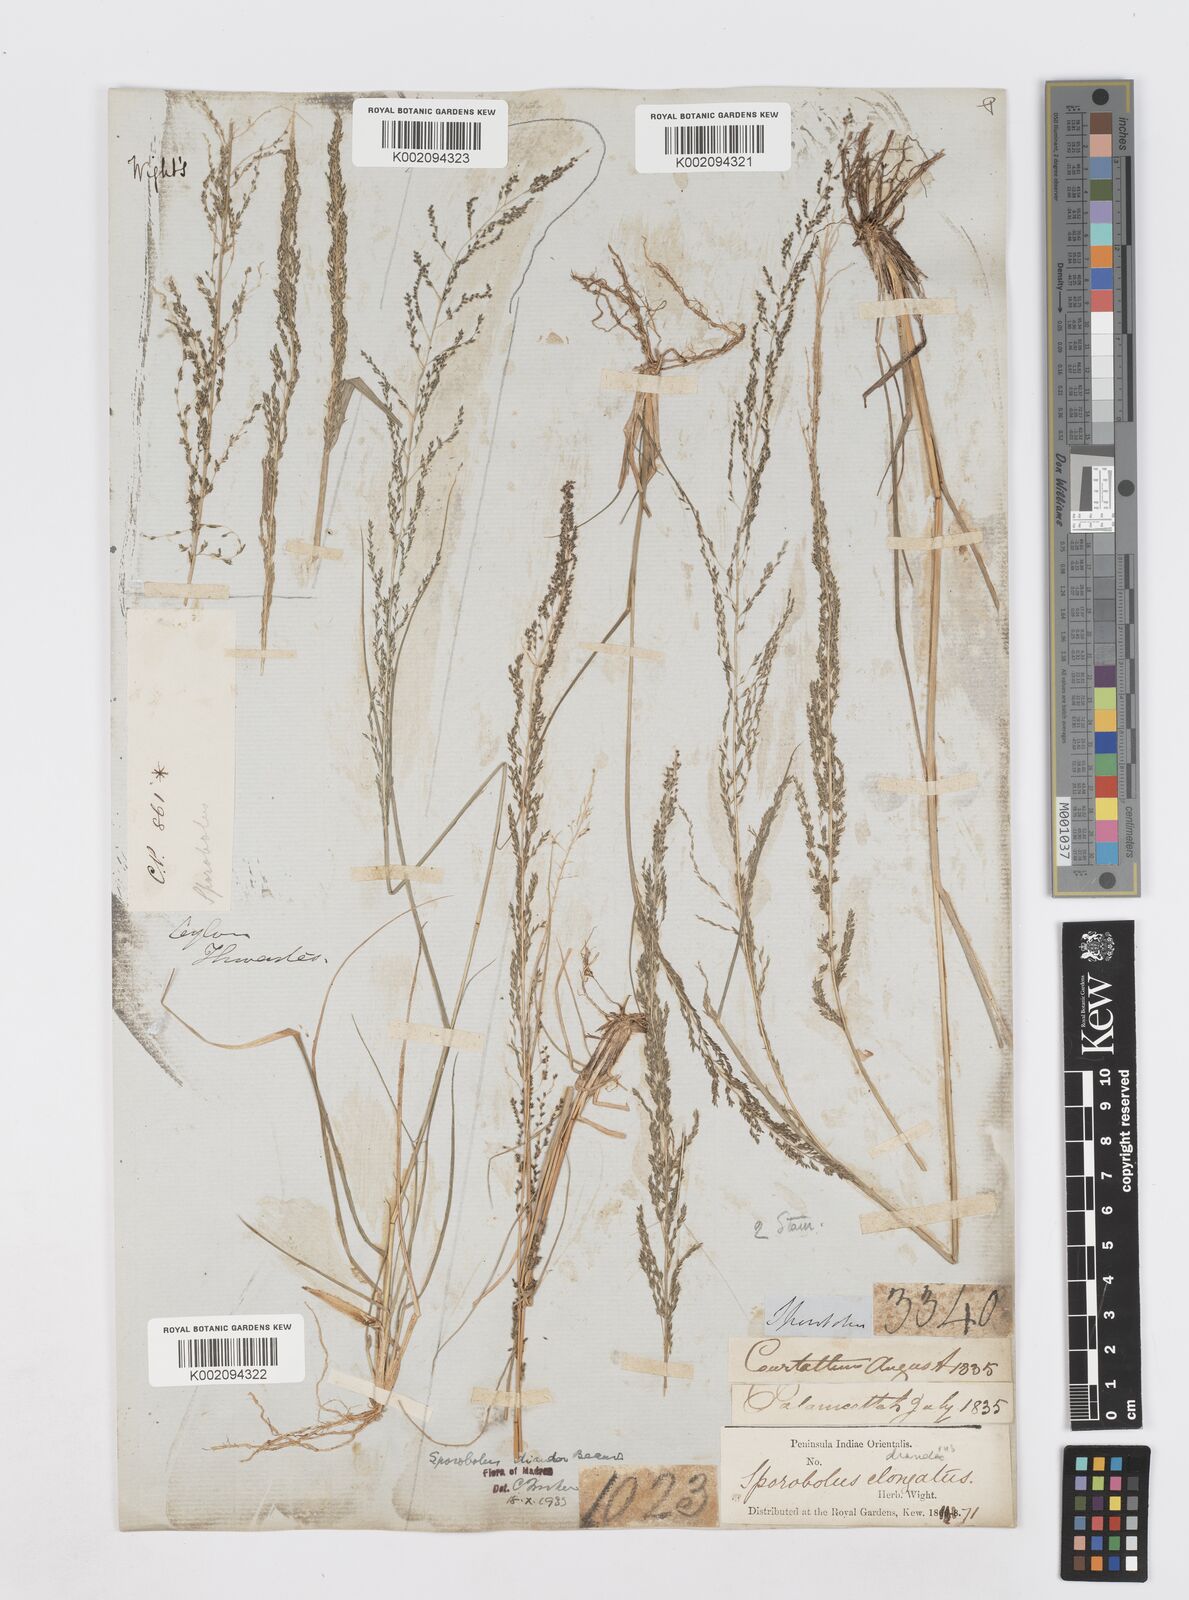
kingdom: Plantae
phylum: Tracheophyta
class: Liliopsida
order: Poales
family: Poaceae
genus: Sporobolus
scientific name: Sporobolus diandrus
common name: Tussock dropseed
